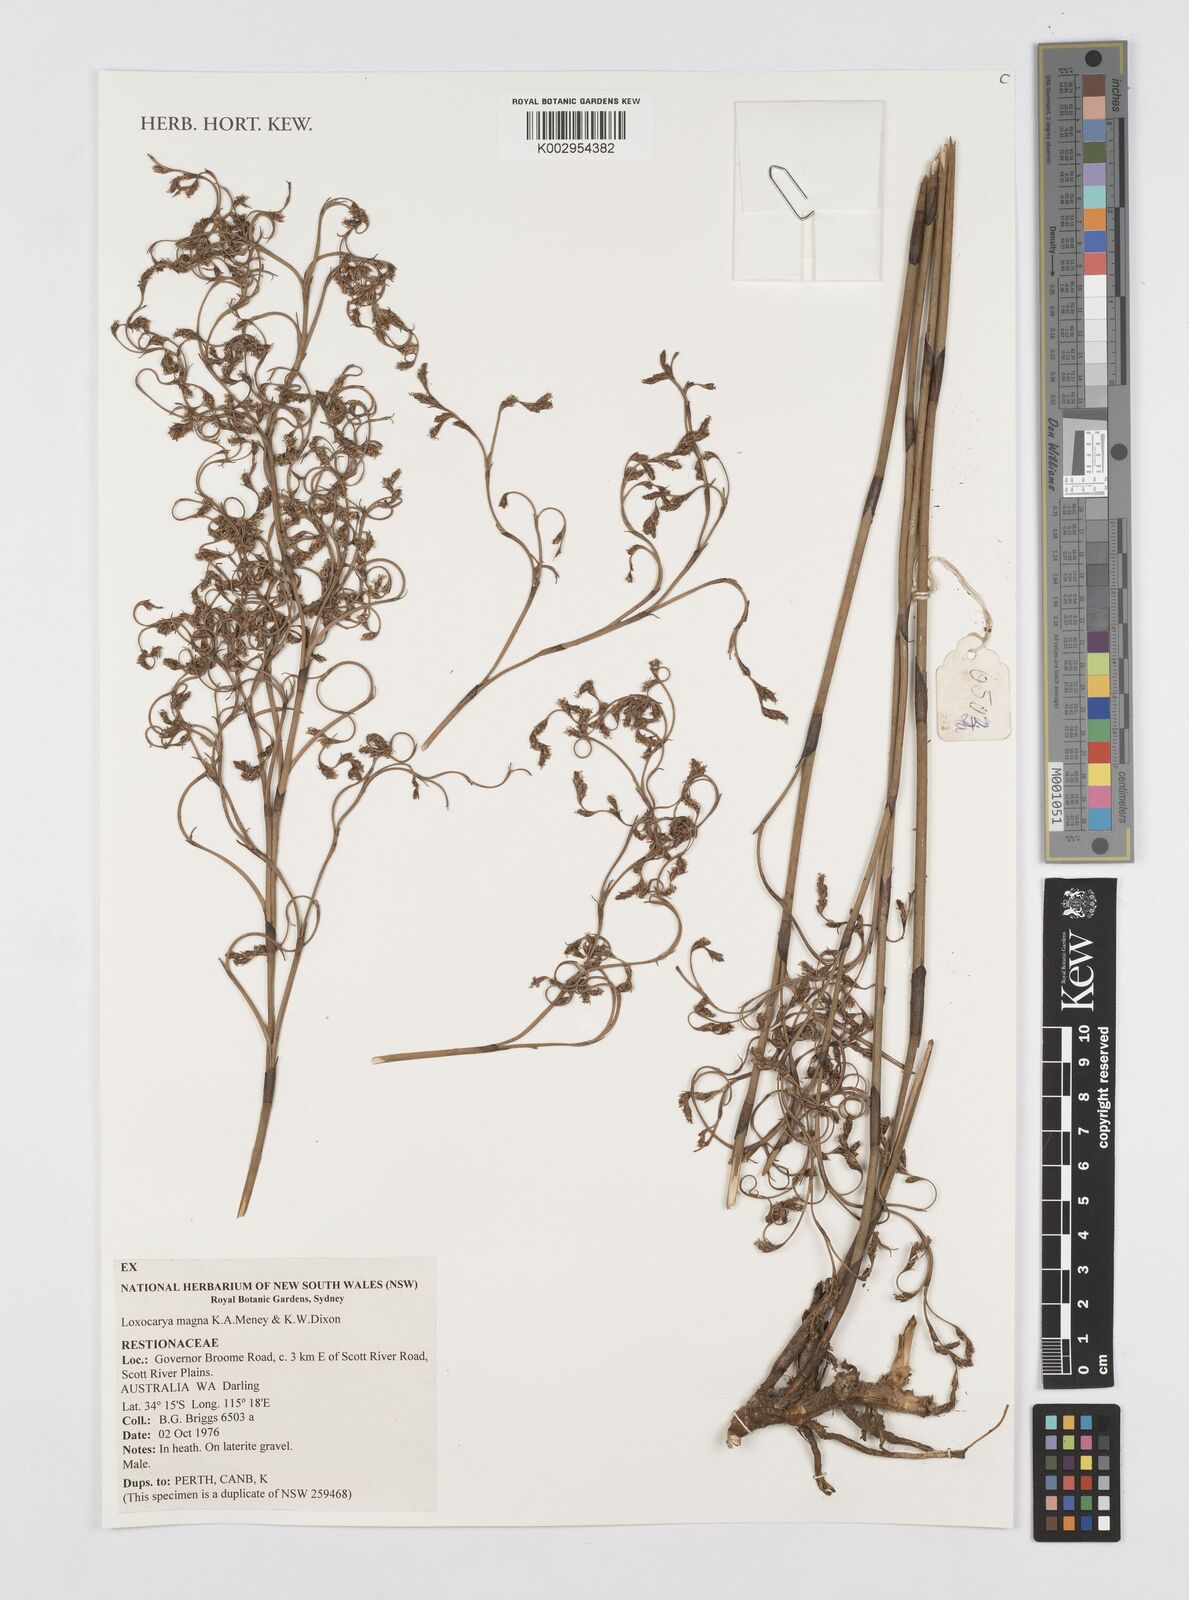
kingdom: Plantae
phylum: Tracheophyta
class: Liliopsida
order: Poales
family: Restionaceae
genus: Loxocarya
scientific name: Loxocarya magna
